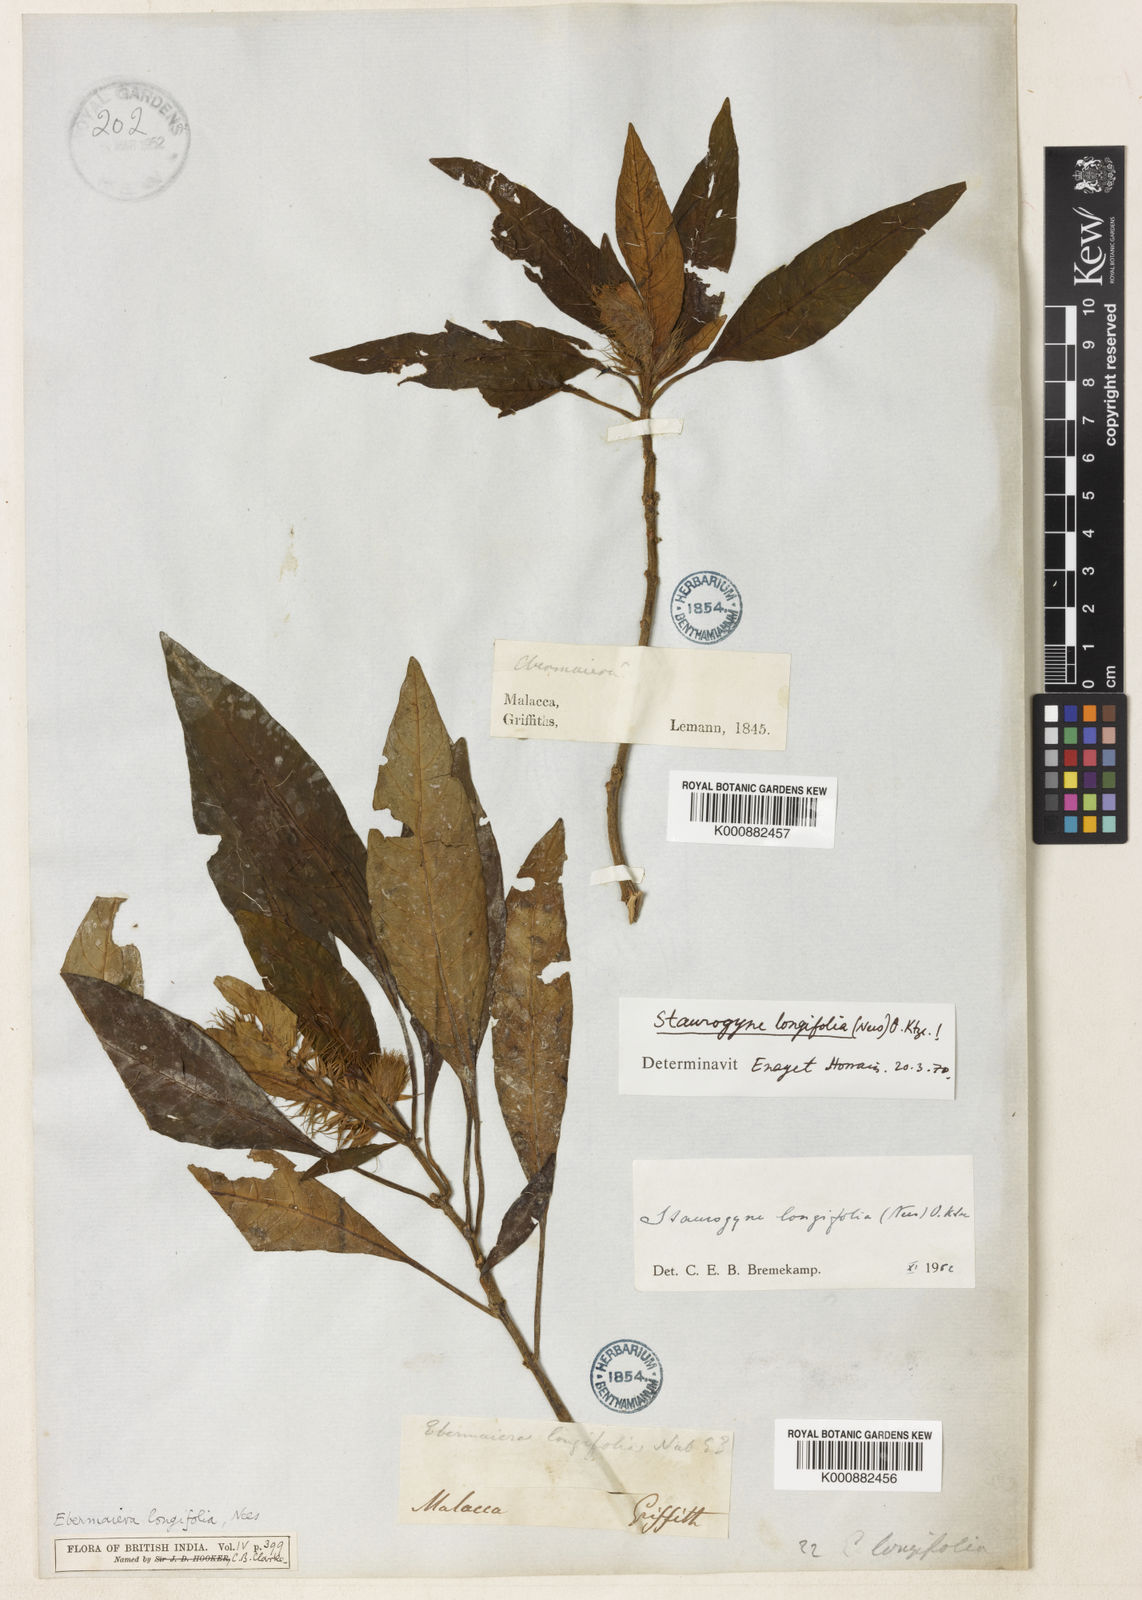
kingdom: Plantae
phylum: Tracheophyta
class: Magnoliopsida
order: Lamiales
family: Acanthaceae
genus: Staurogyne
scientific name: Staurogyne longifolia
